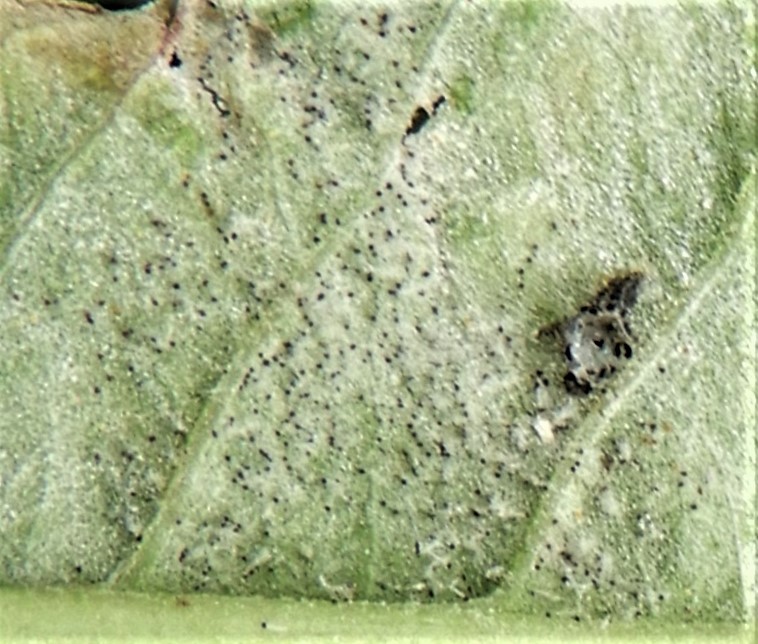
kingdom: Fungi
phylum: Ascomycota
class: Leotiomycetes
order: Helotiales
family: Erysiphaceae
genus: Erysiphe
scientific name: Erysiphe euonymi
